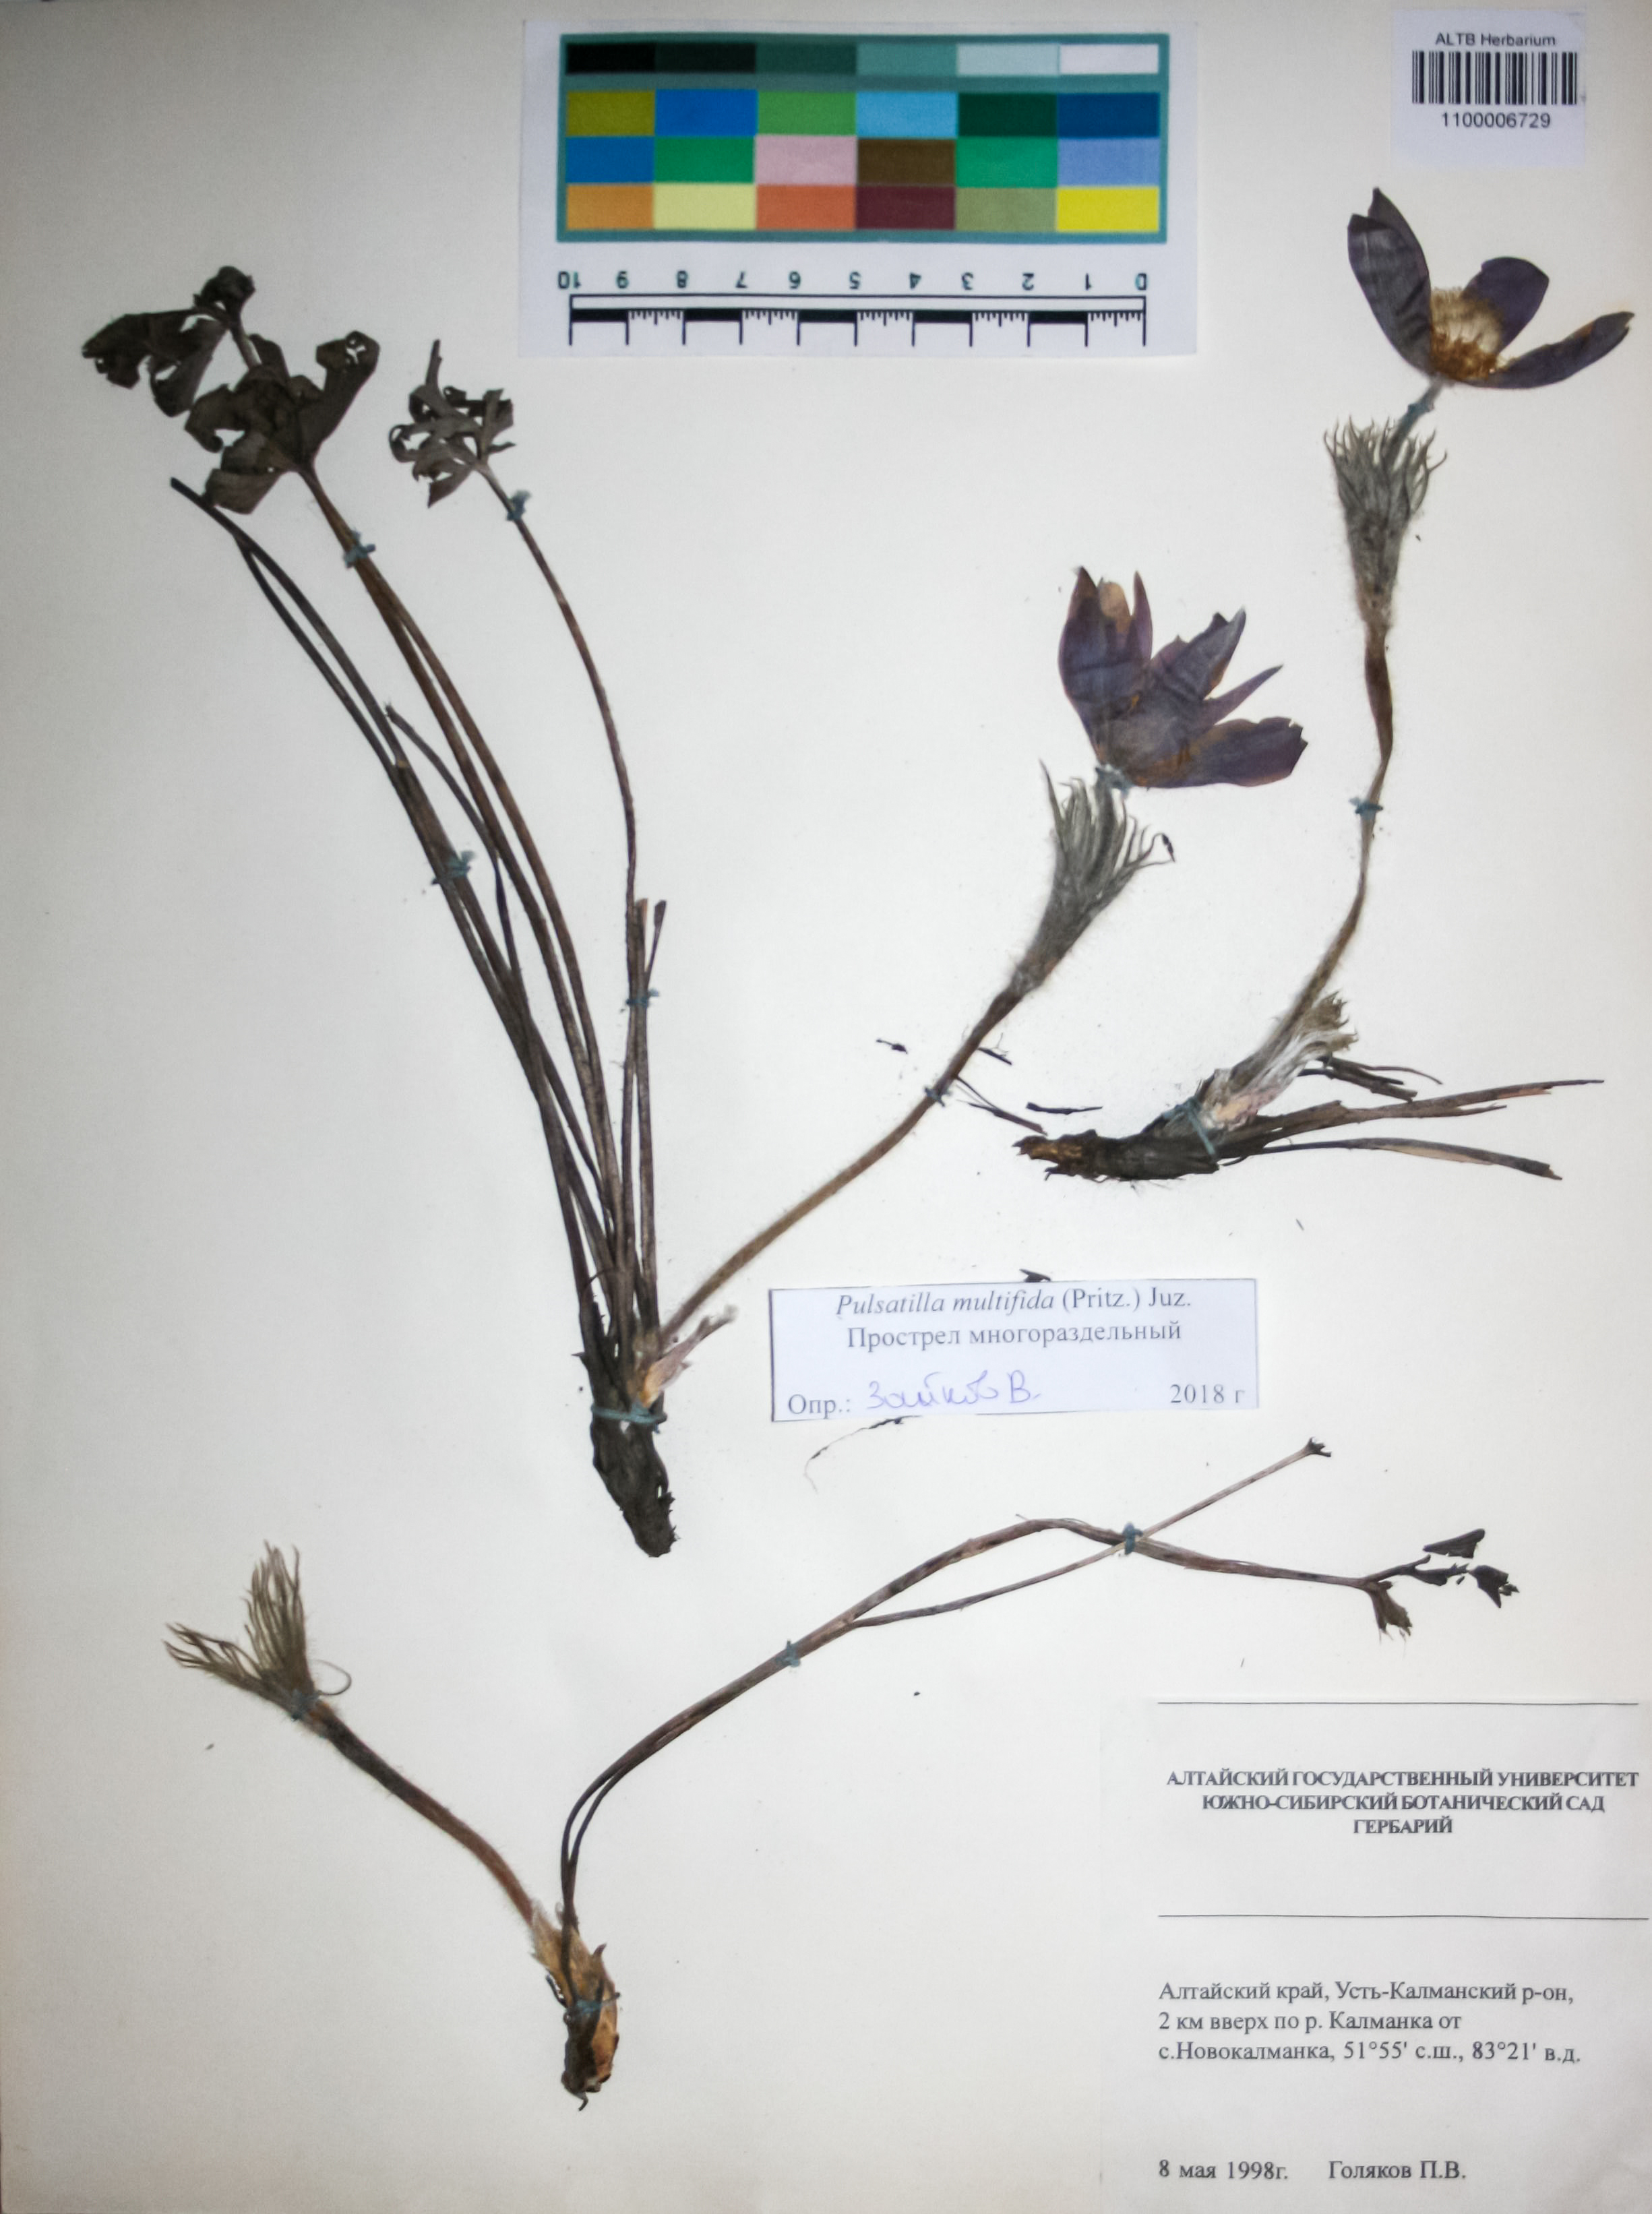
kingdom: Plantae
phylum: Tracheophyta
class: Magnoliopsida
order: Ranunculales
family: Ranunculaceae
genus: Pulsatilla
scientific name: Pulsatilla patens
